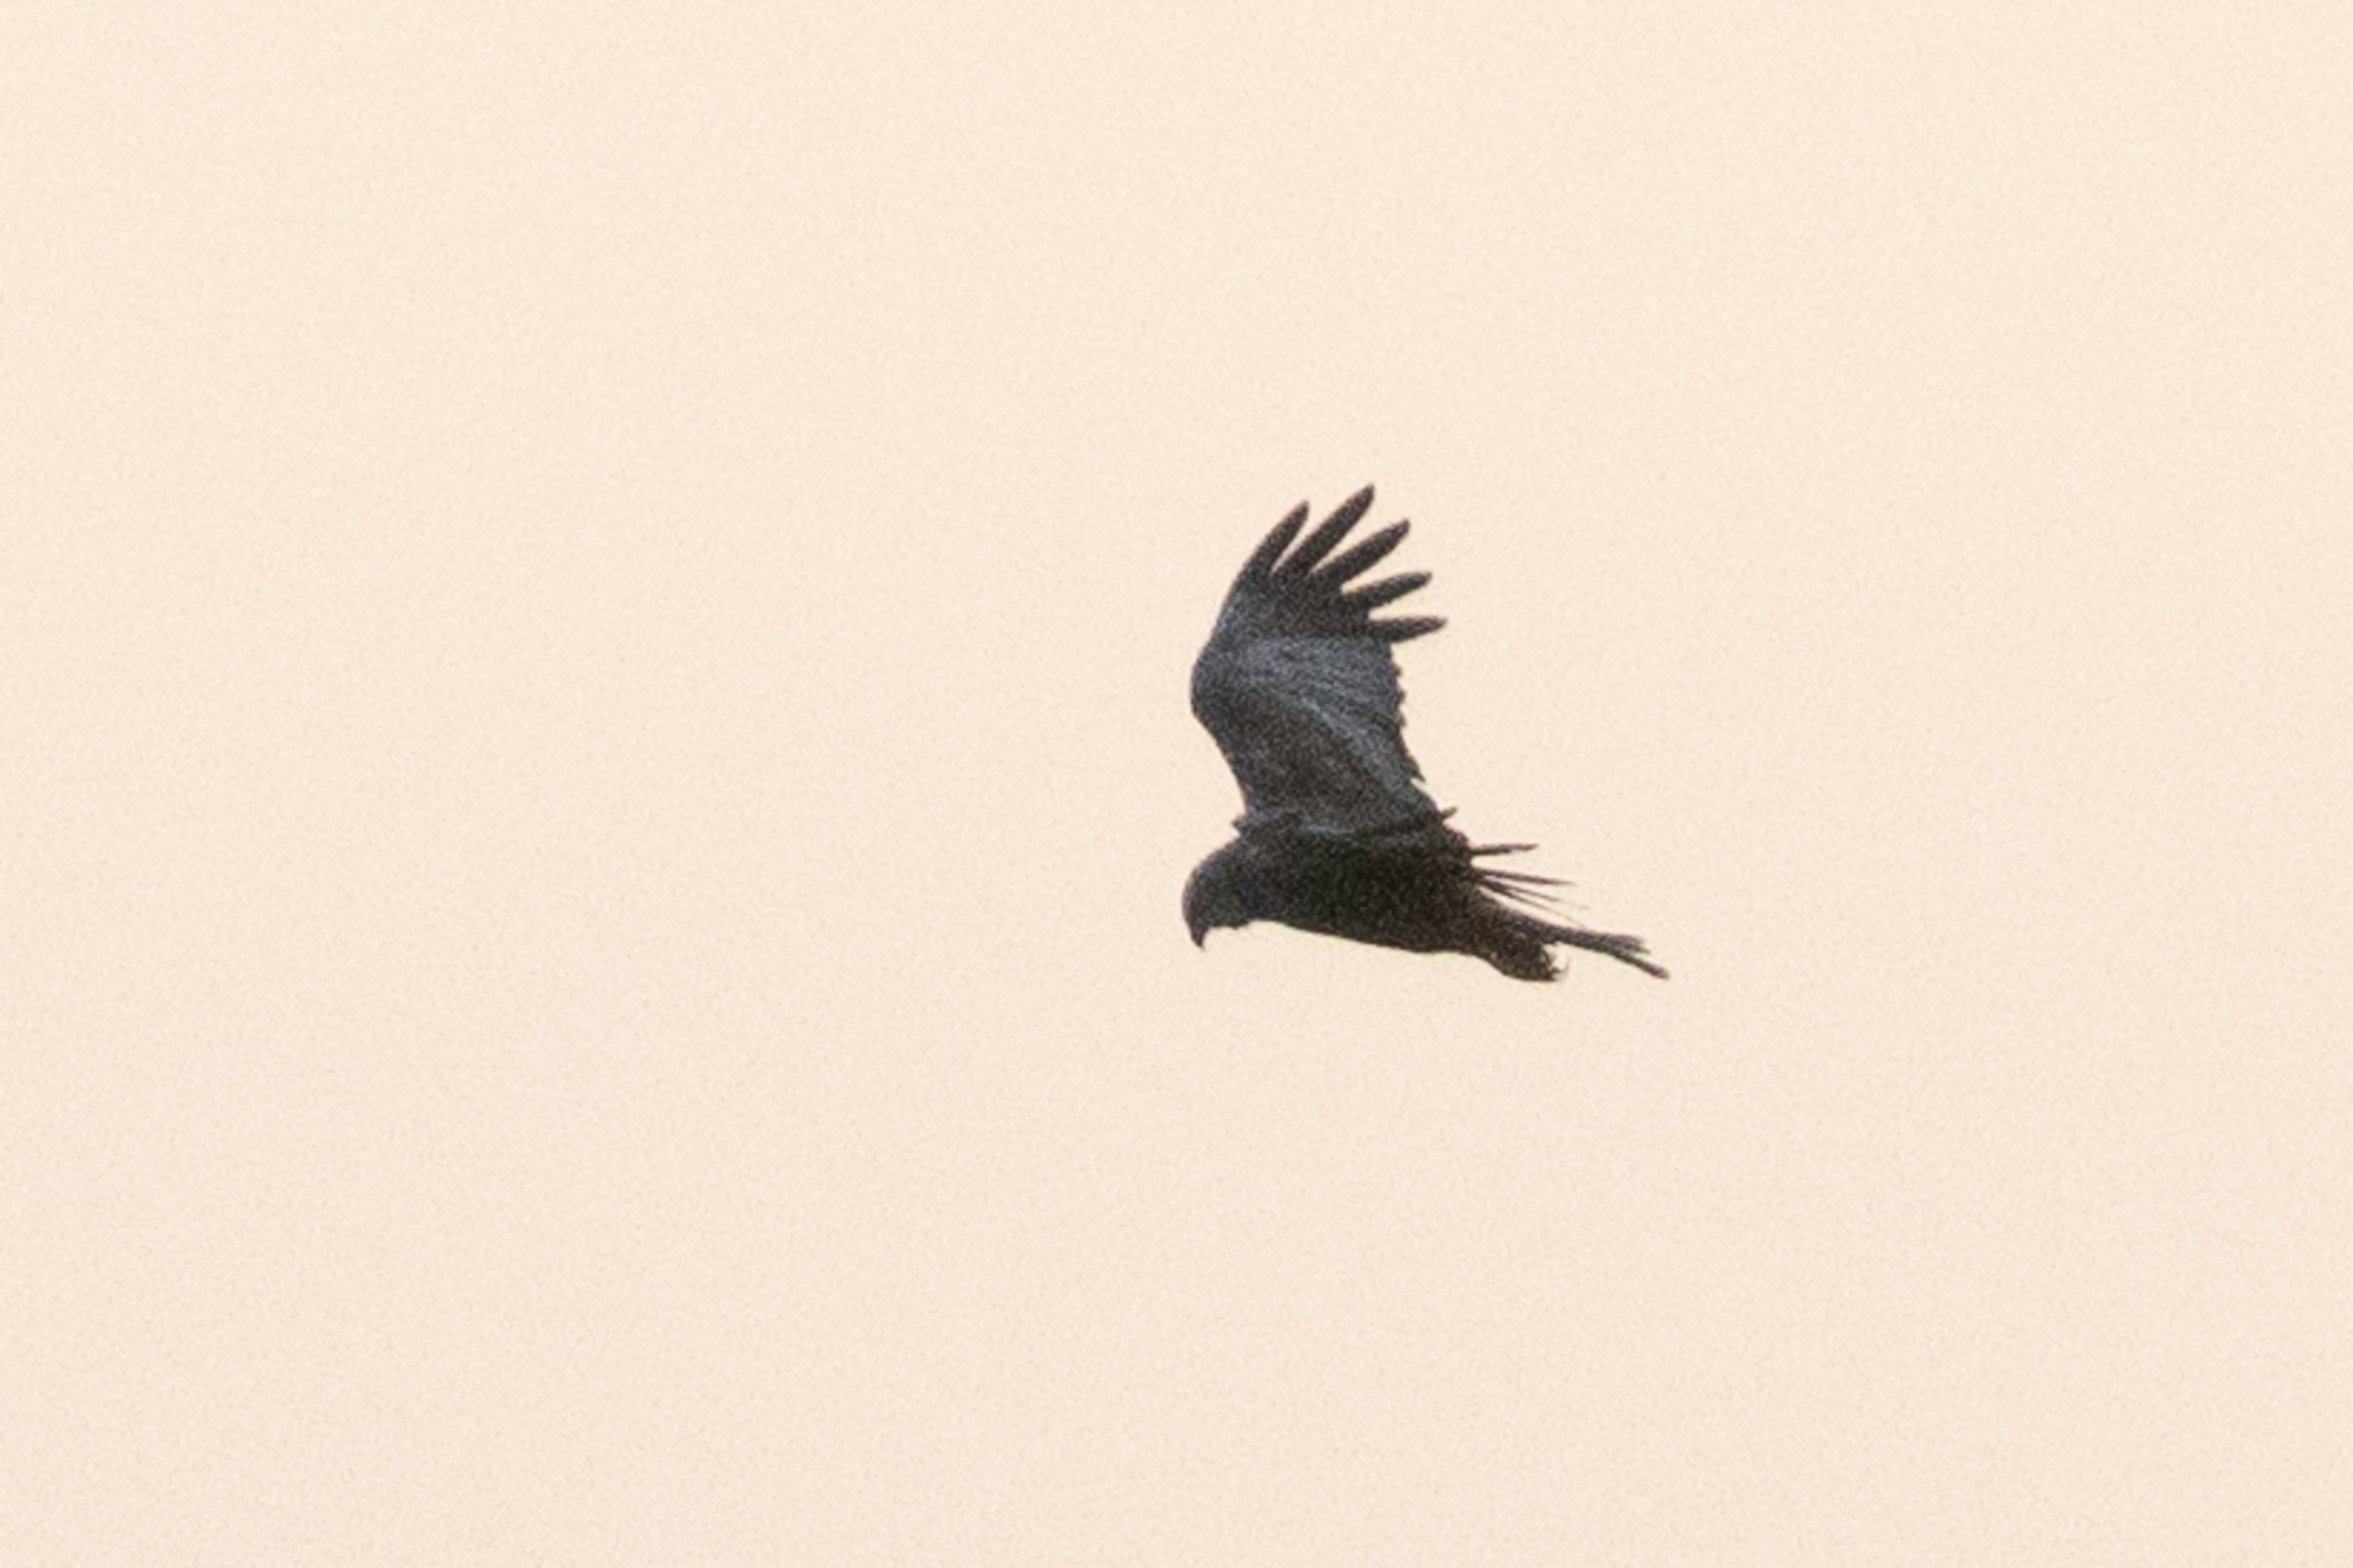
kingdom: Animalia
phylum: Chordata
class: Aves
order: Accipitriformes
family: Accipitridae
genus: Circus
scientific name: Circus aeruginosus
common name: Rørhøg
